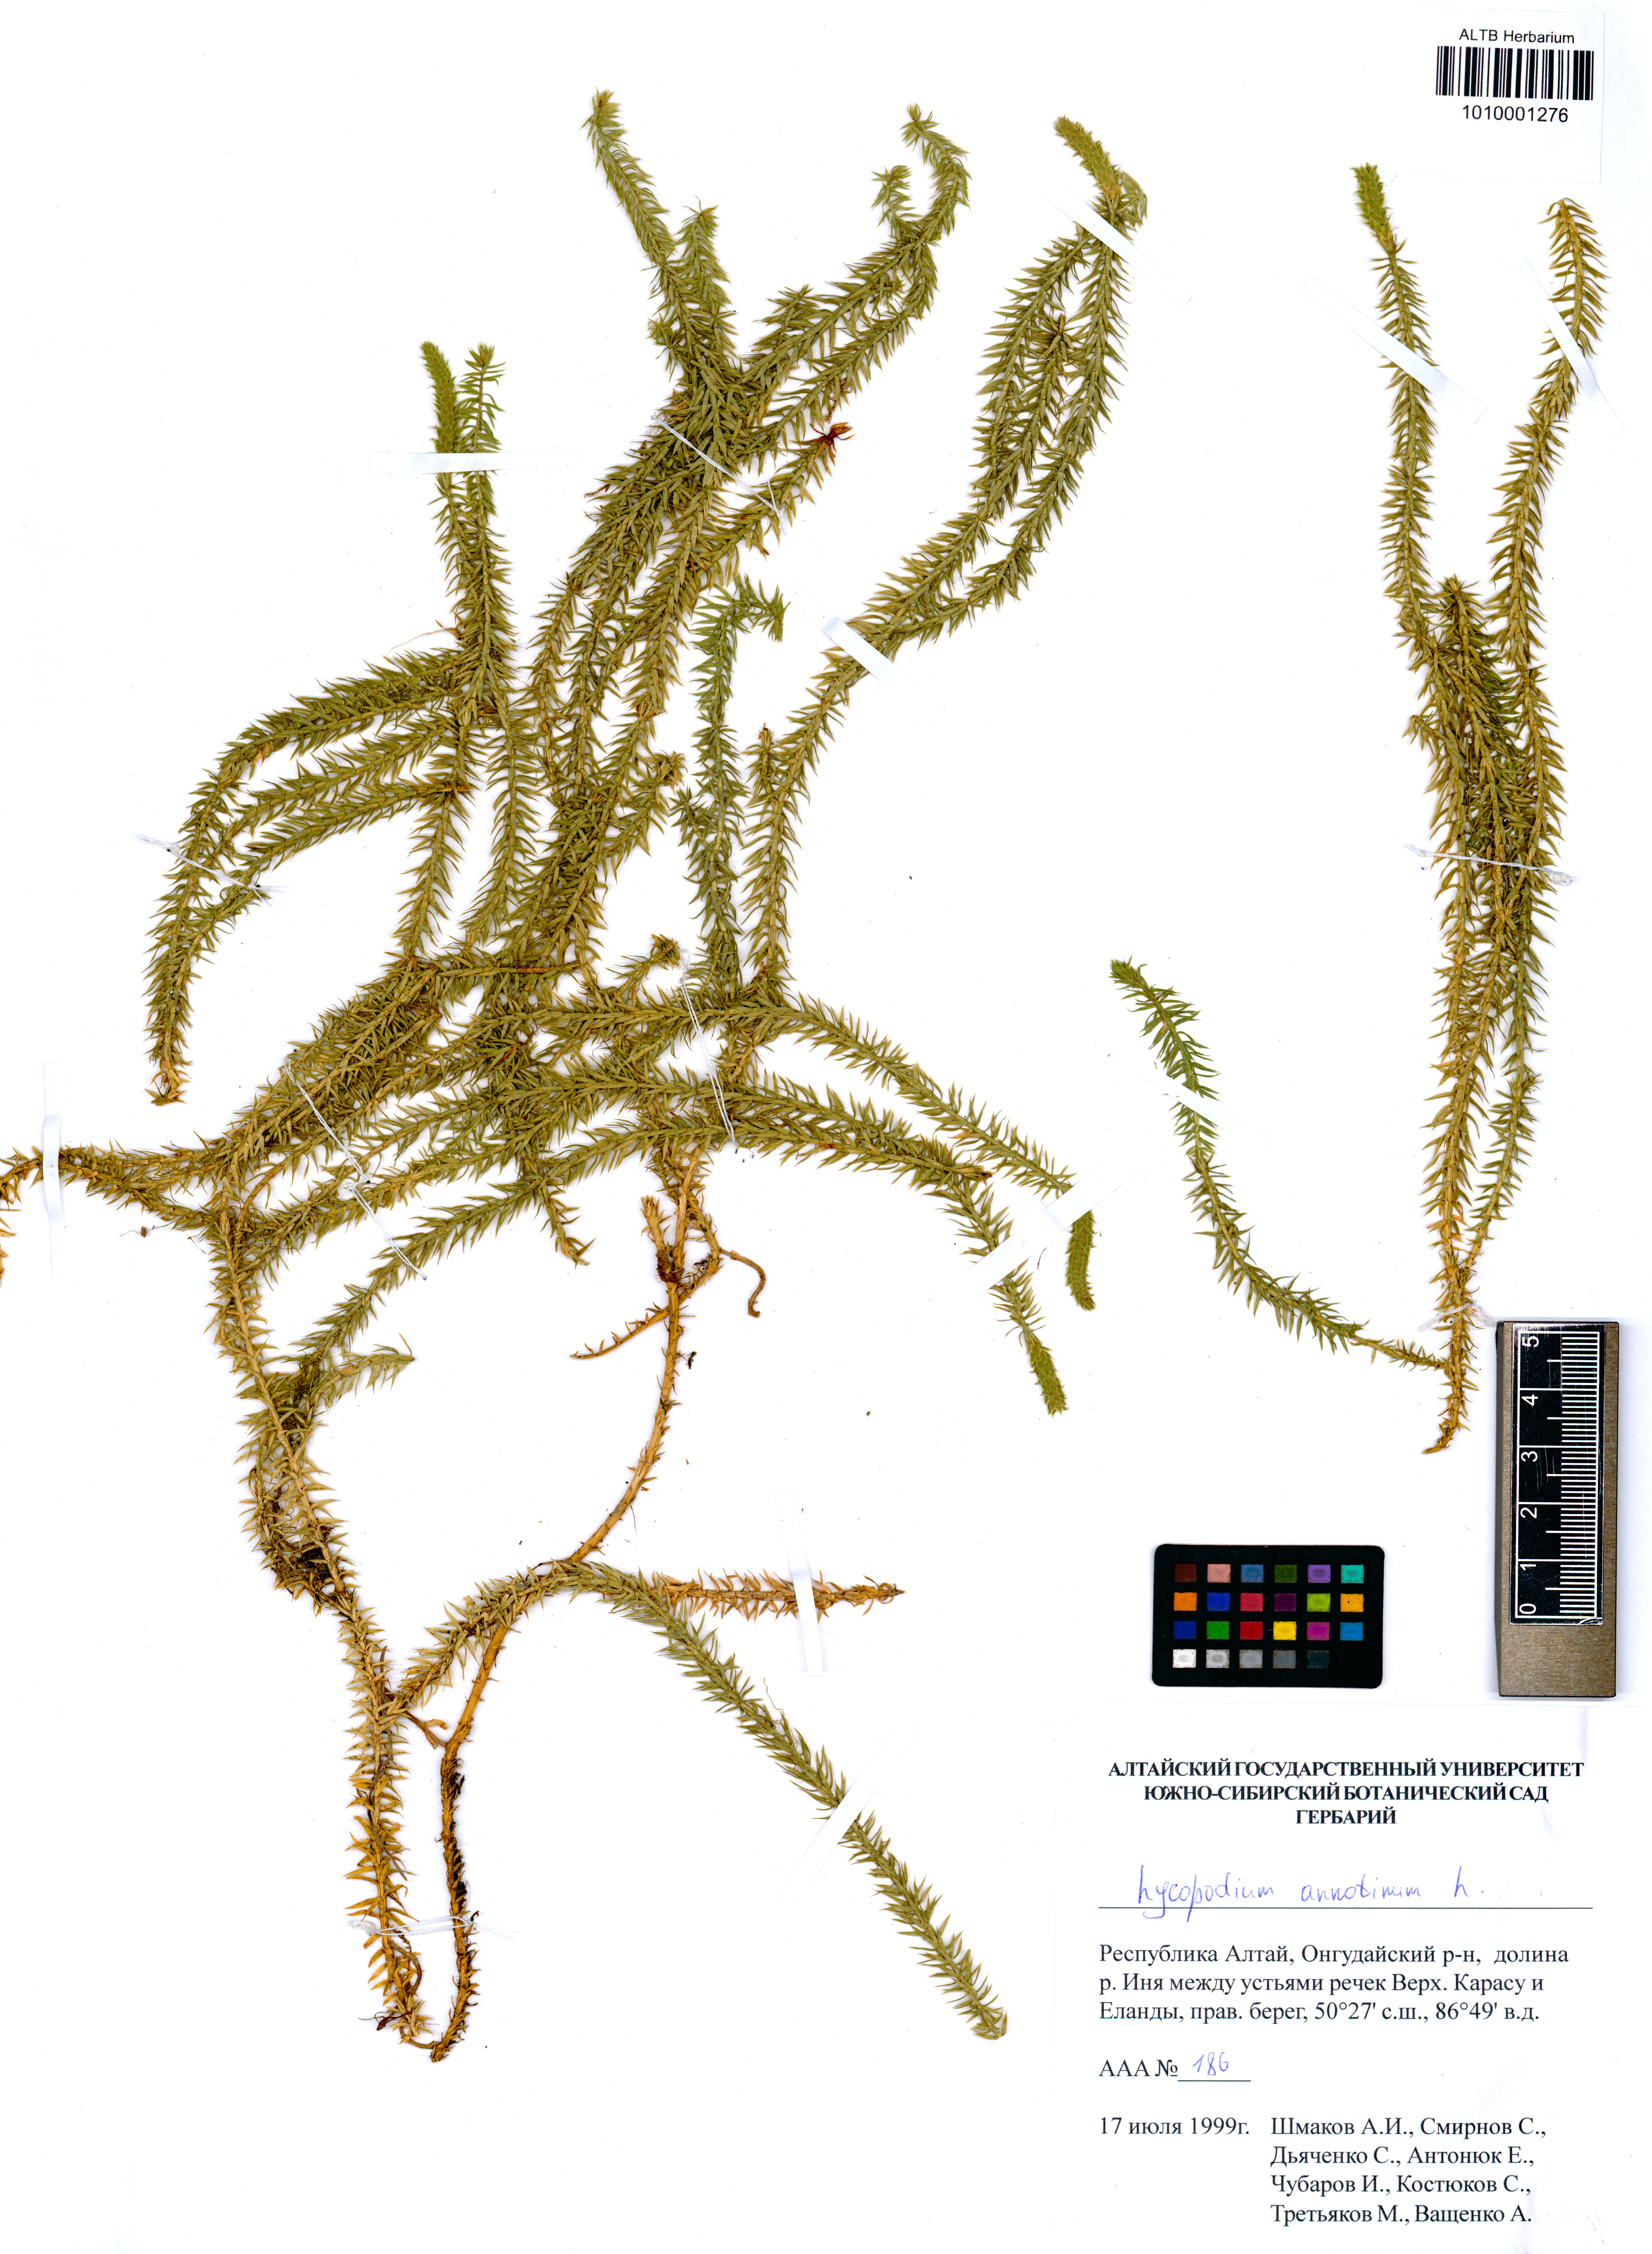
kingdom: Plantae
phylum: Tracheophyta
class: Lycopodiopsida
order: Lycopodiales
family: Lycopodiaceae
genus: Spinulum
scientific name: Spinulum annotinum
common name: Interrupted club-moss
